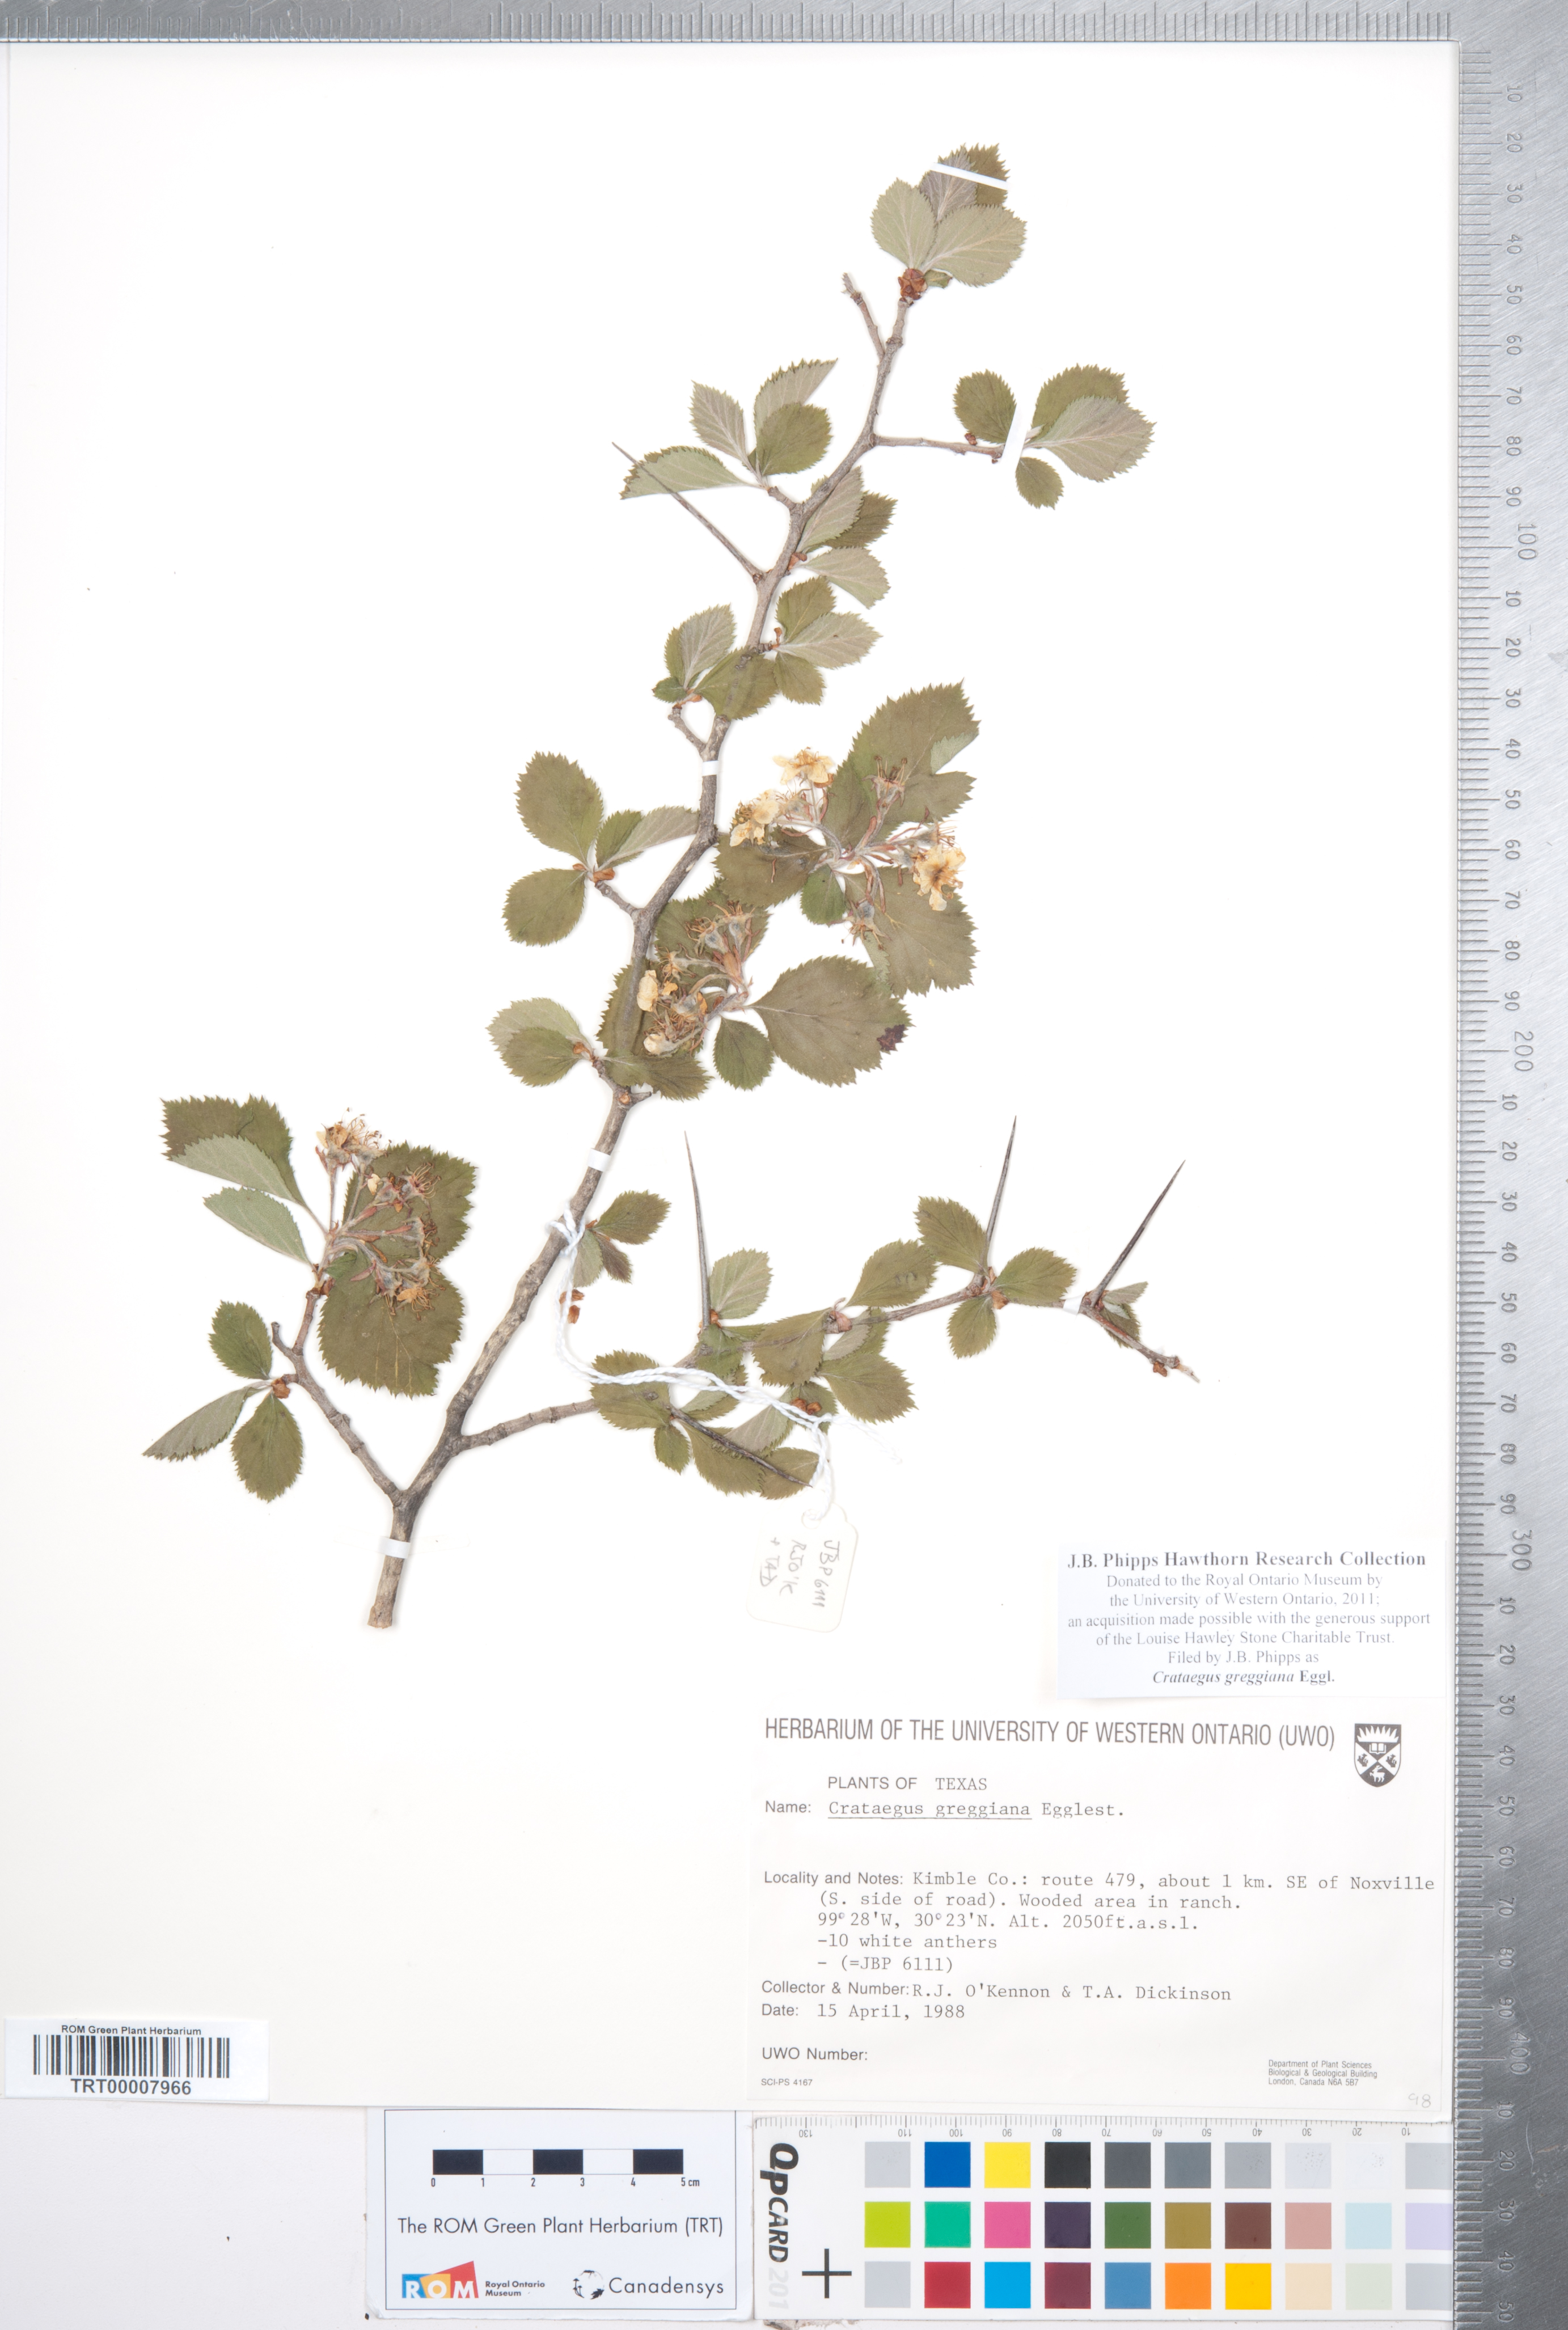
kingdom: Plantae
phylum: Tracheophyta
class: Magnoliopsida
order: Rosales
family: Rosaceae
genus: Crataegus
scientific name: Crataegus greggiana
